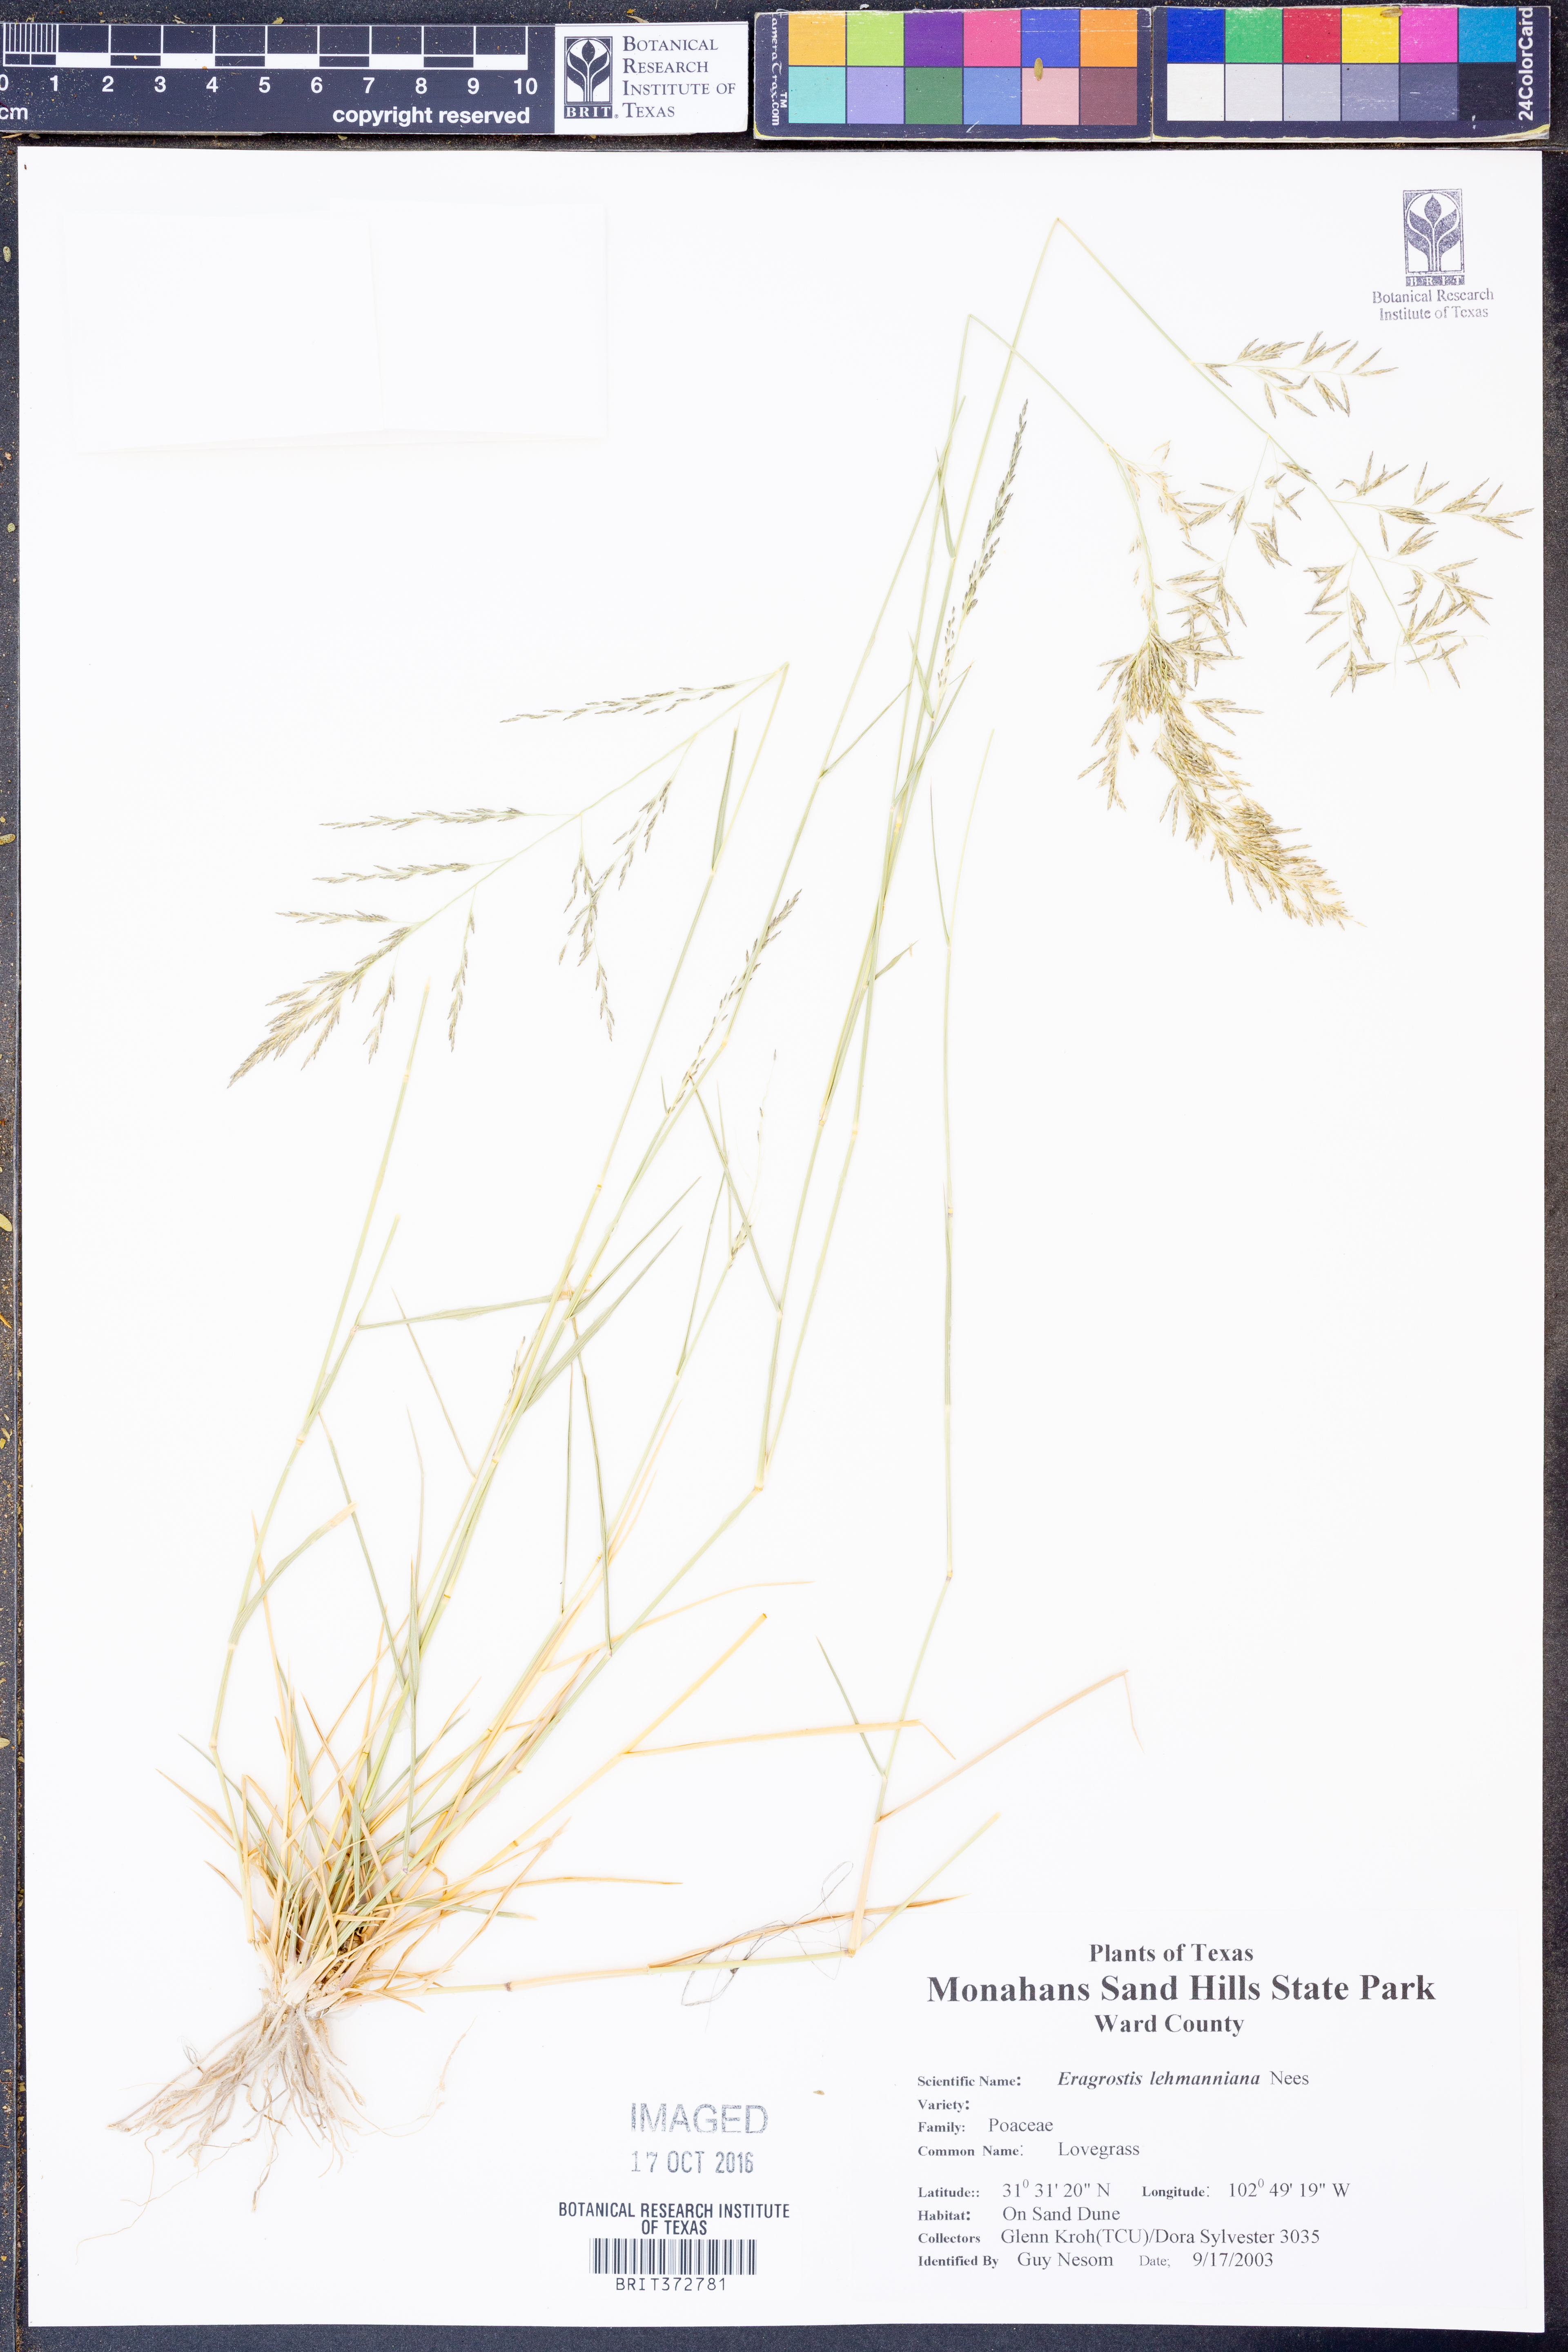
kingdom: Plantae
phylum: Tracheophyta
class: Liliopsida
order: Poales
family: Poaceae
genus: Eragrostis
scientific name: Eragrostis lehmanniana
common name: Lehmann lovegrass
